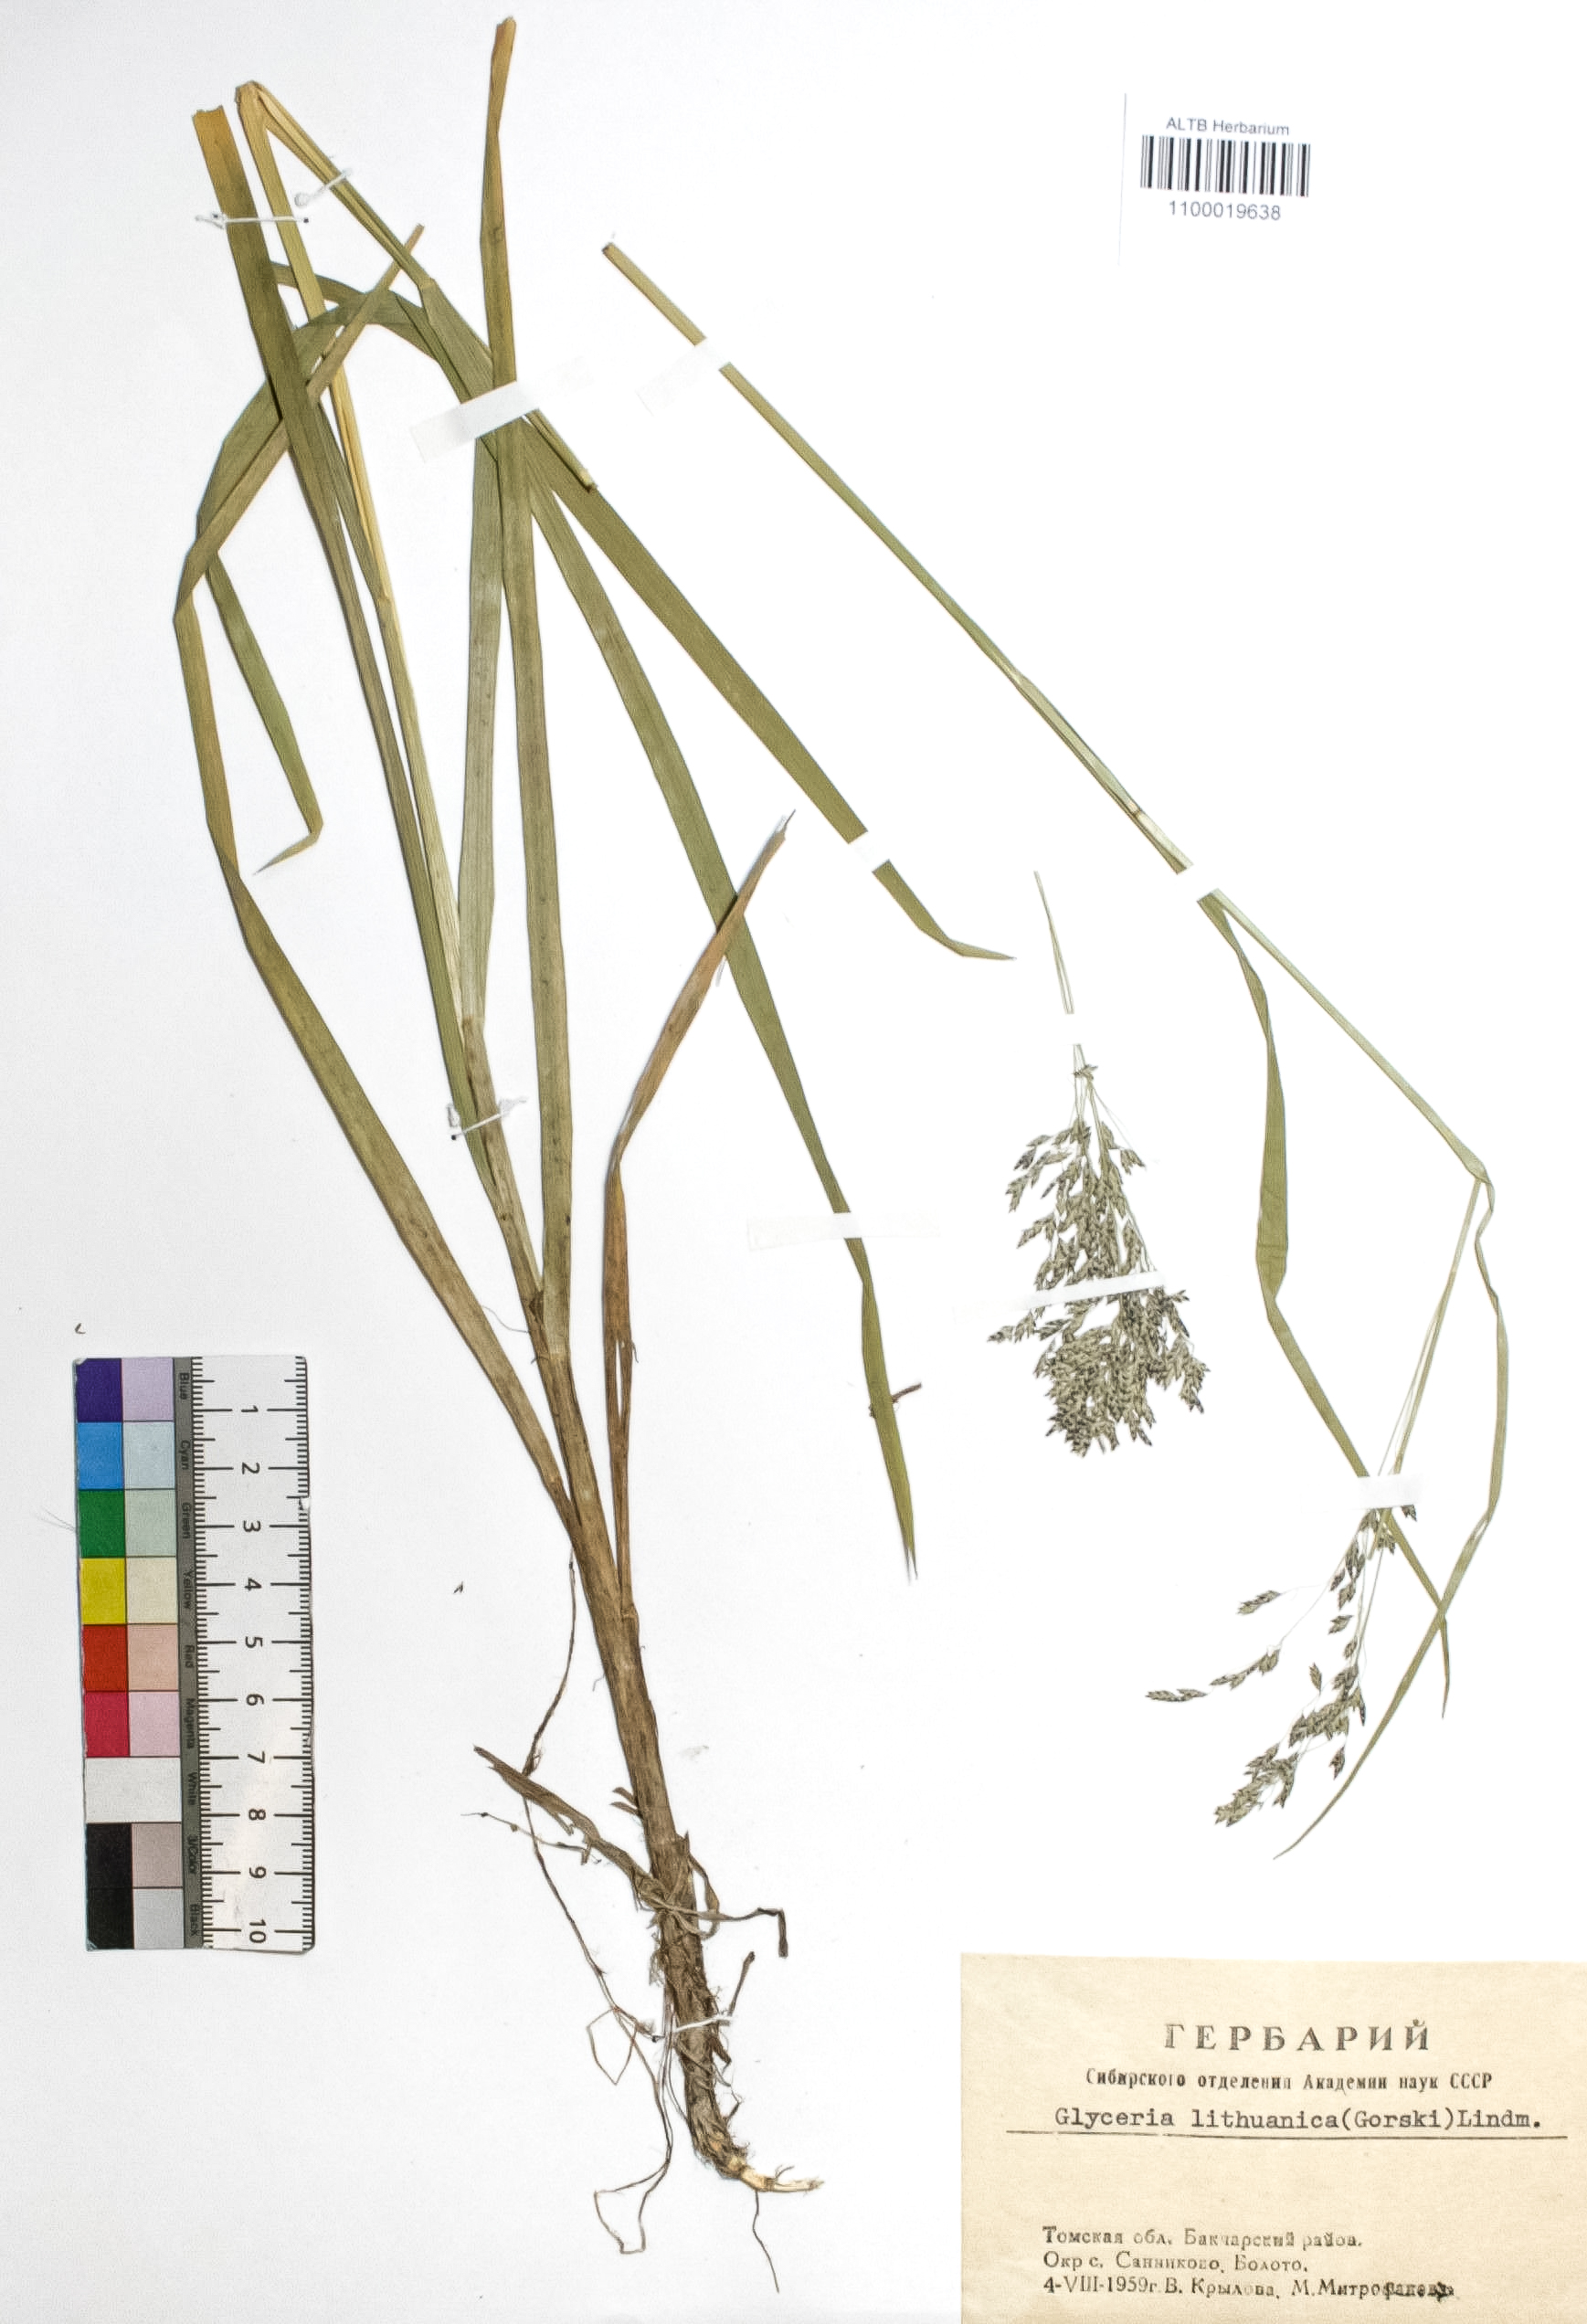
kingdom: Plantae
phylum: Tracheophyta
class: Liliopsida
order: Poales
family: Poaceae
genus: Glyceria
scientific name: Glyceria lithuanica
